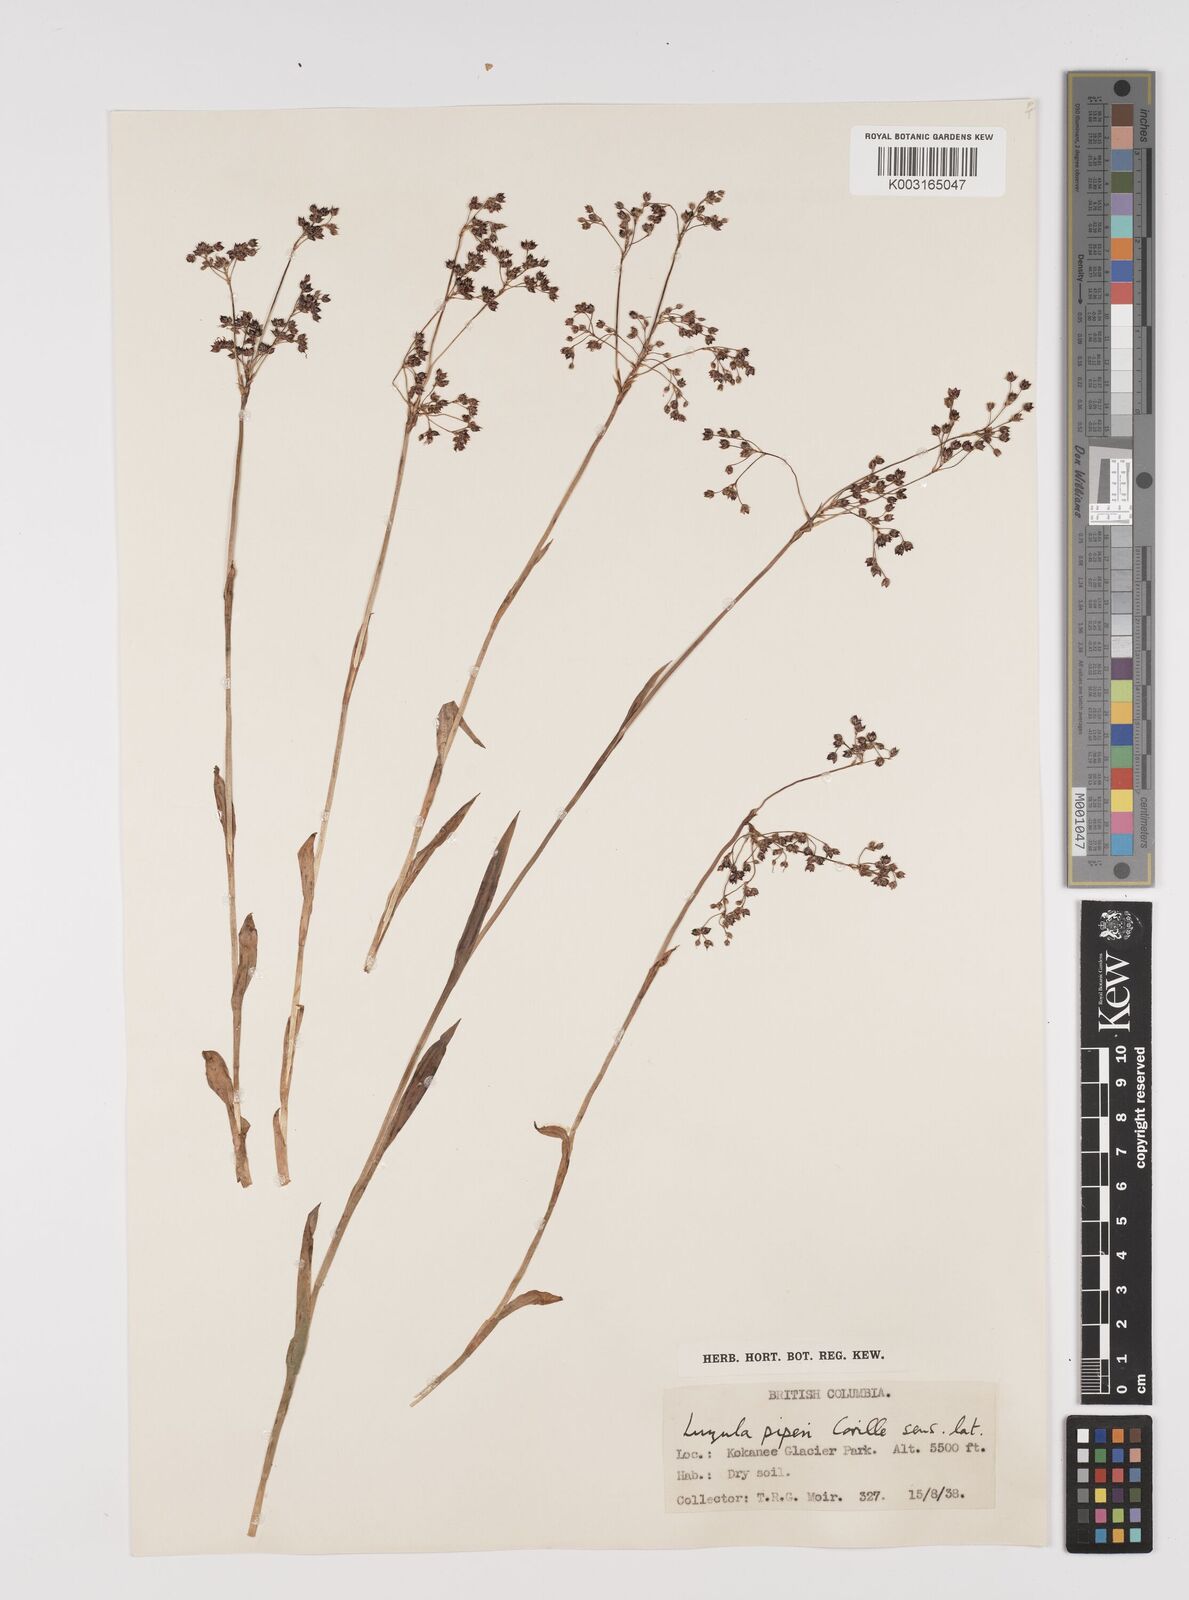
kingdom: Plantae
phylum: Tracheophyta
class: Liliopsida
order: Poales
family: Juncaceae
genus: Luzula
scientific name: Luzula piperi
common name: Piper's wood-rush
